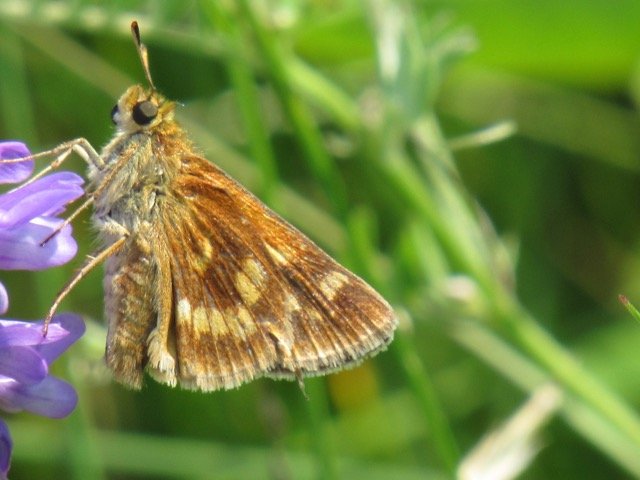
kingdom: Animalia
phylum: Arthropoda
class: Insecta
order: Lepidoptera
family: Hesperiidae
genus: Polites
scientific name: Polites
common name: Long Dash Skipper
